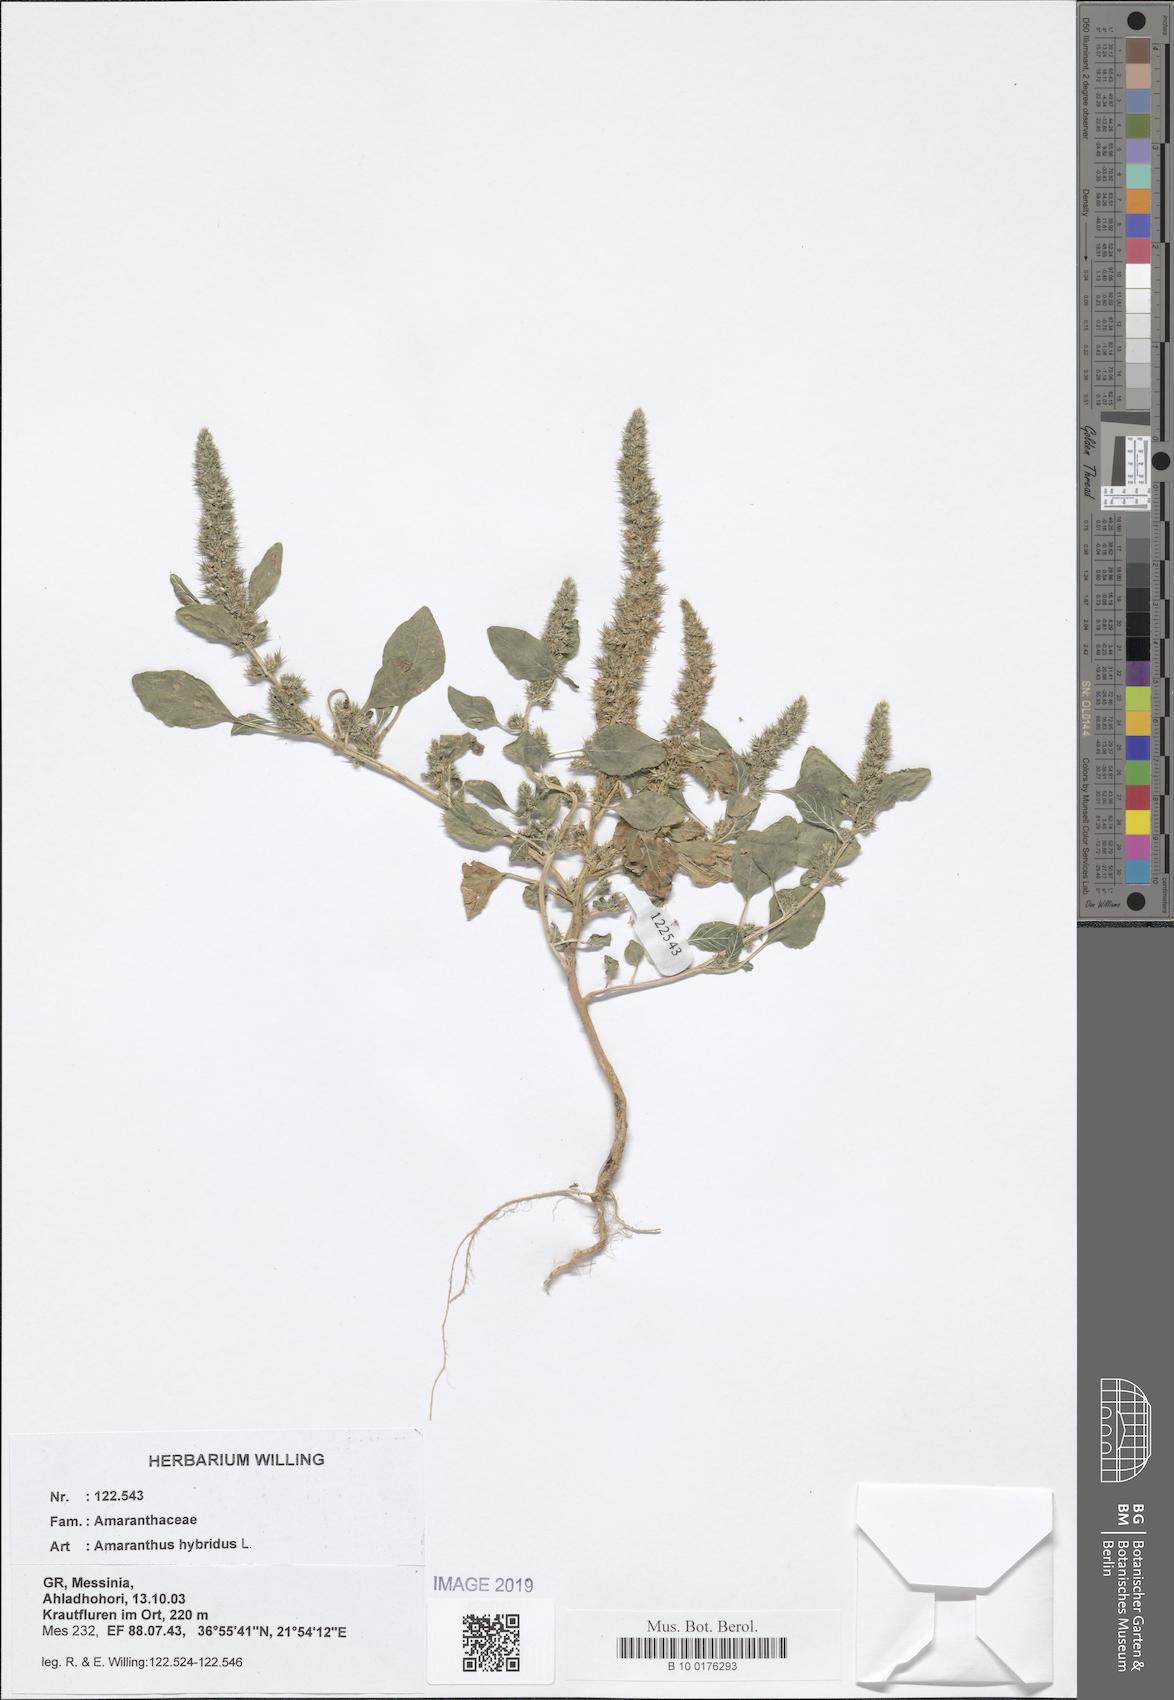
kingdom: Plantae
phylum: Tracheophyta
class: Magnoliopsida
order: Caryophyllales
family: Amaranthaceae
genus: Amaranthus
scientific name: Amaranthus hybridus
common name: Green amaranth
